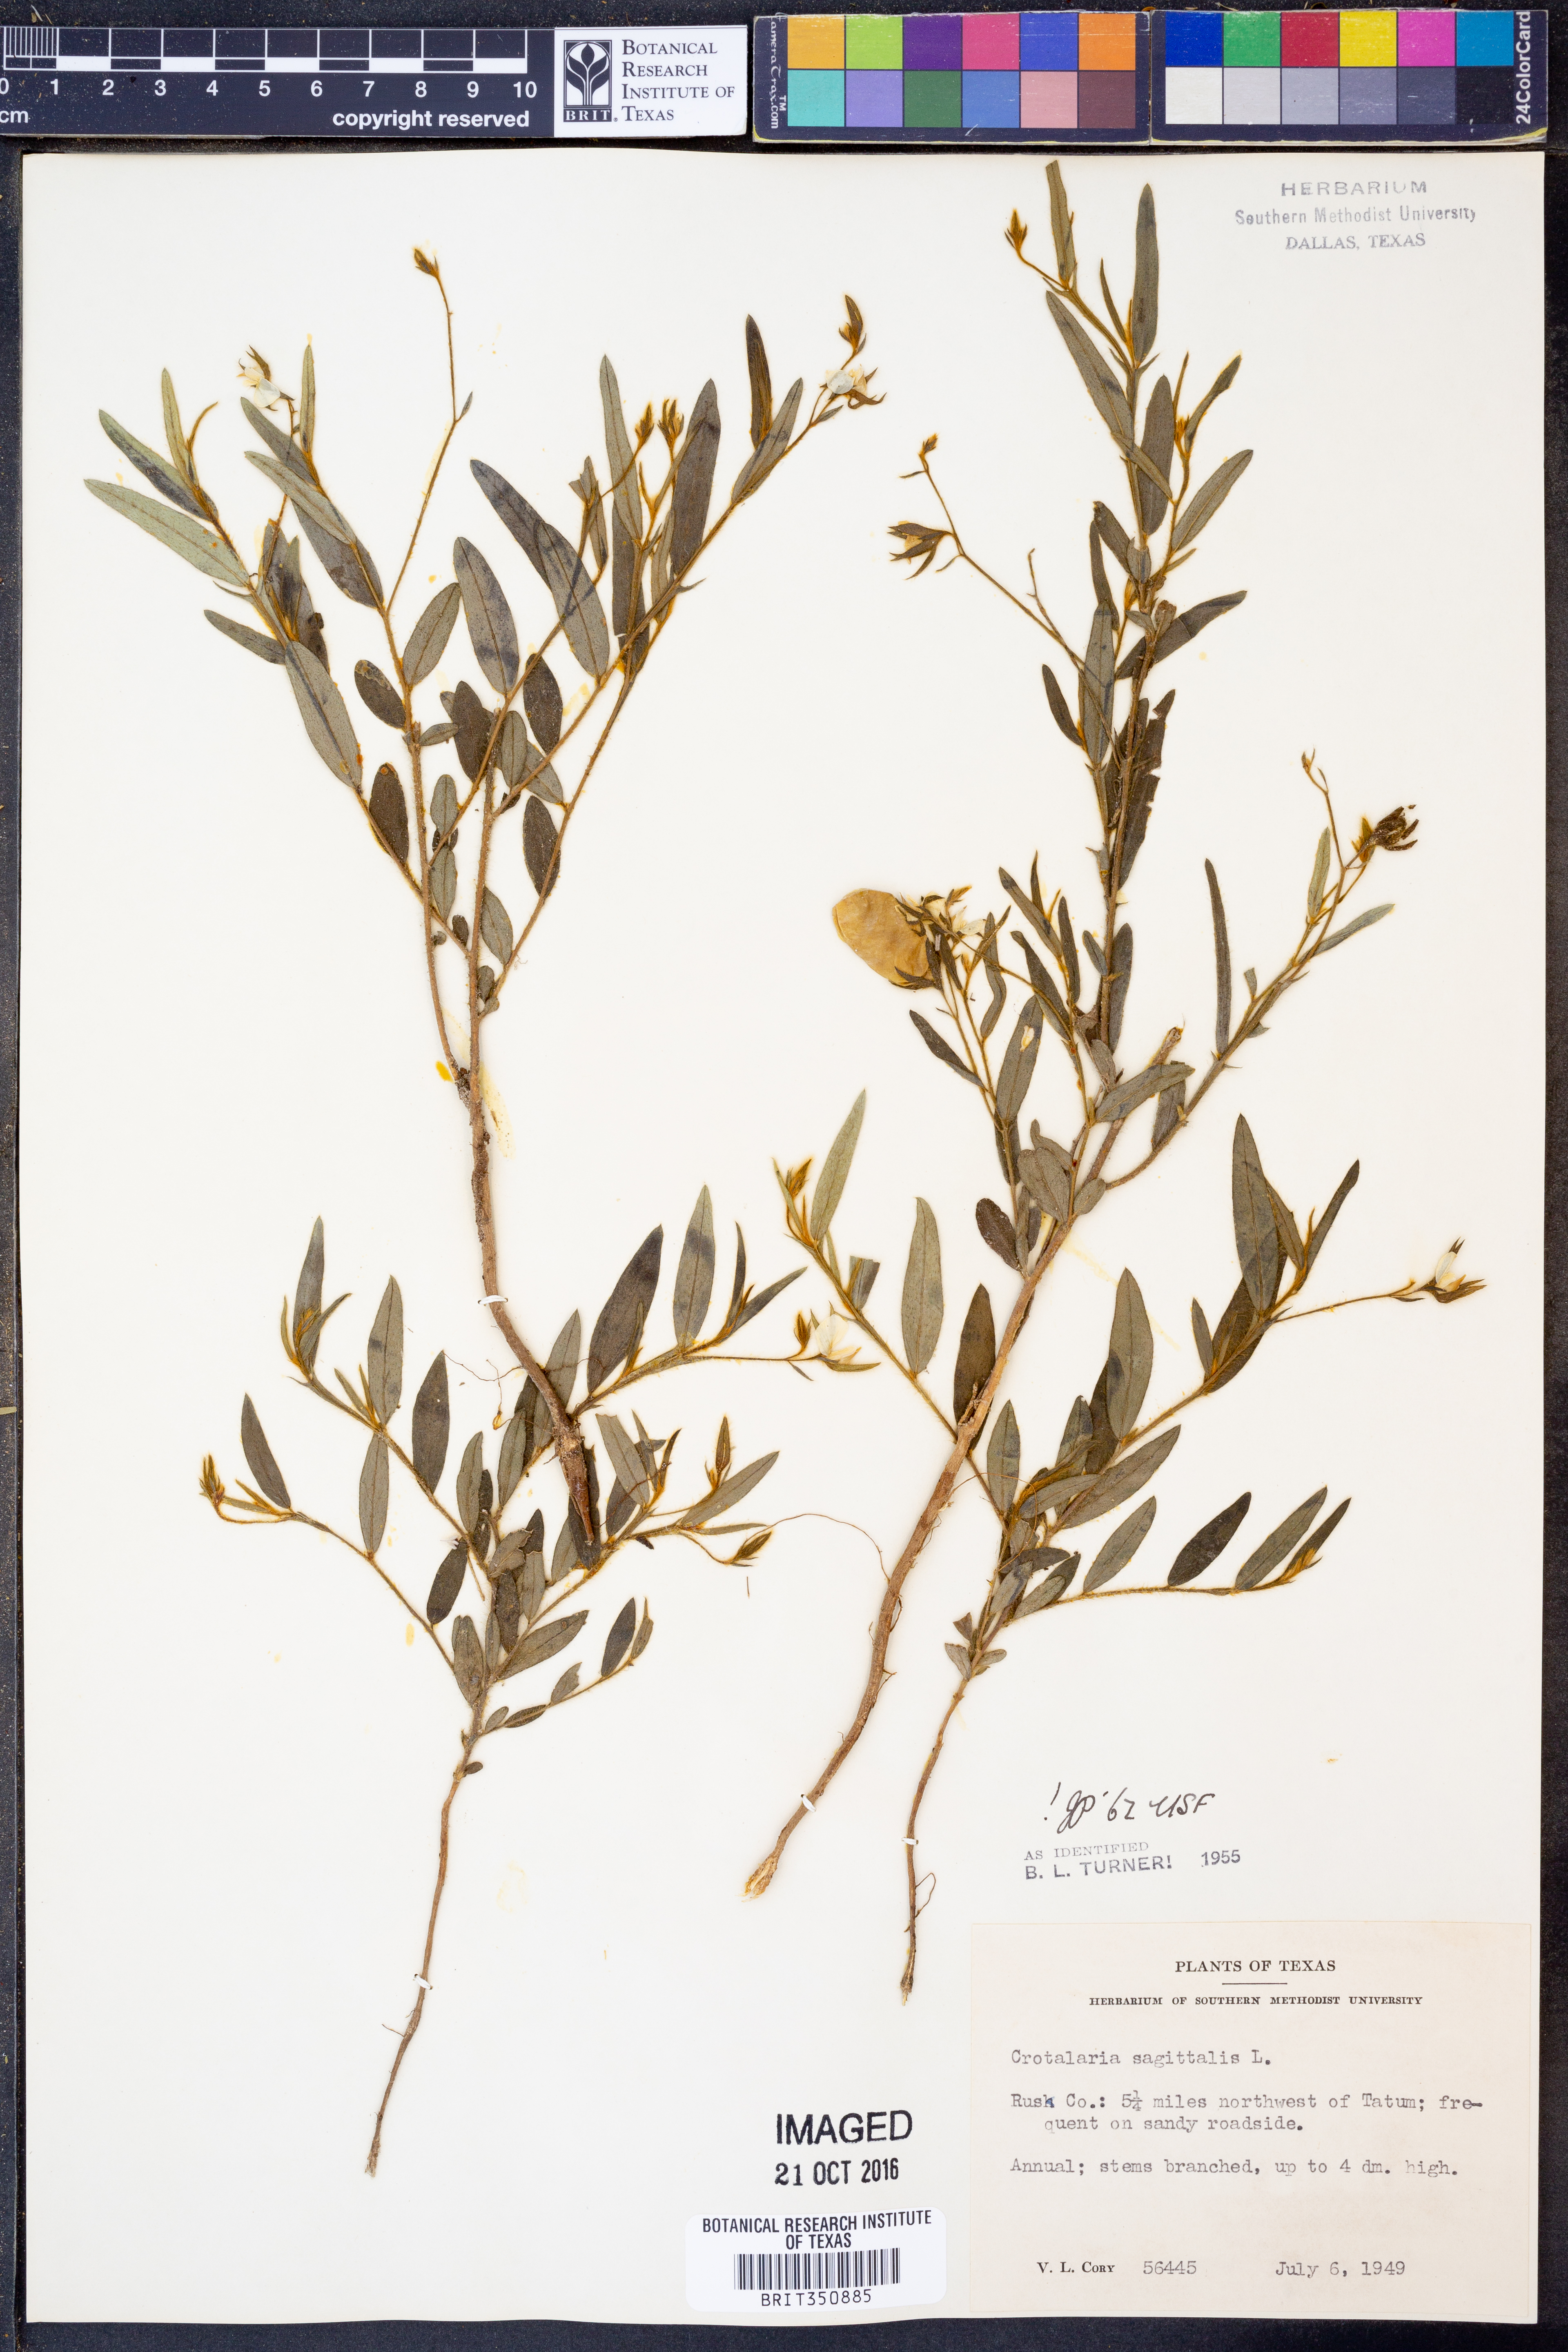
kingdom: Plantae
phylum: Tracheophyta
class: Magnoliopsida
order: Fabales
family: Fabaceae
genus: Crotalaria
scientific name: Crotalaria sagittalis
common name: Arrowhead rattlebox
